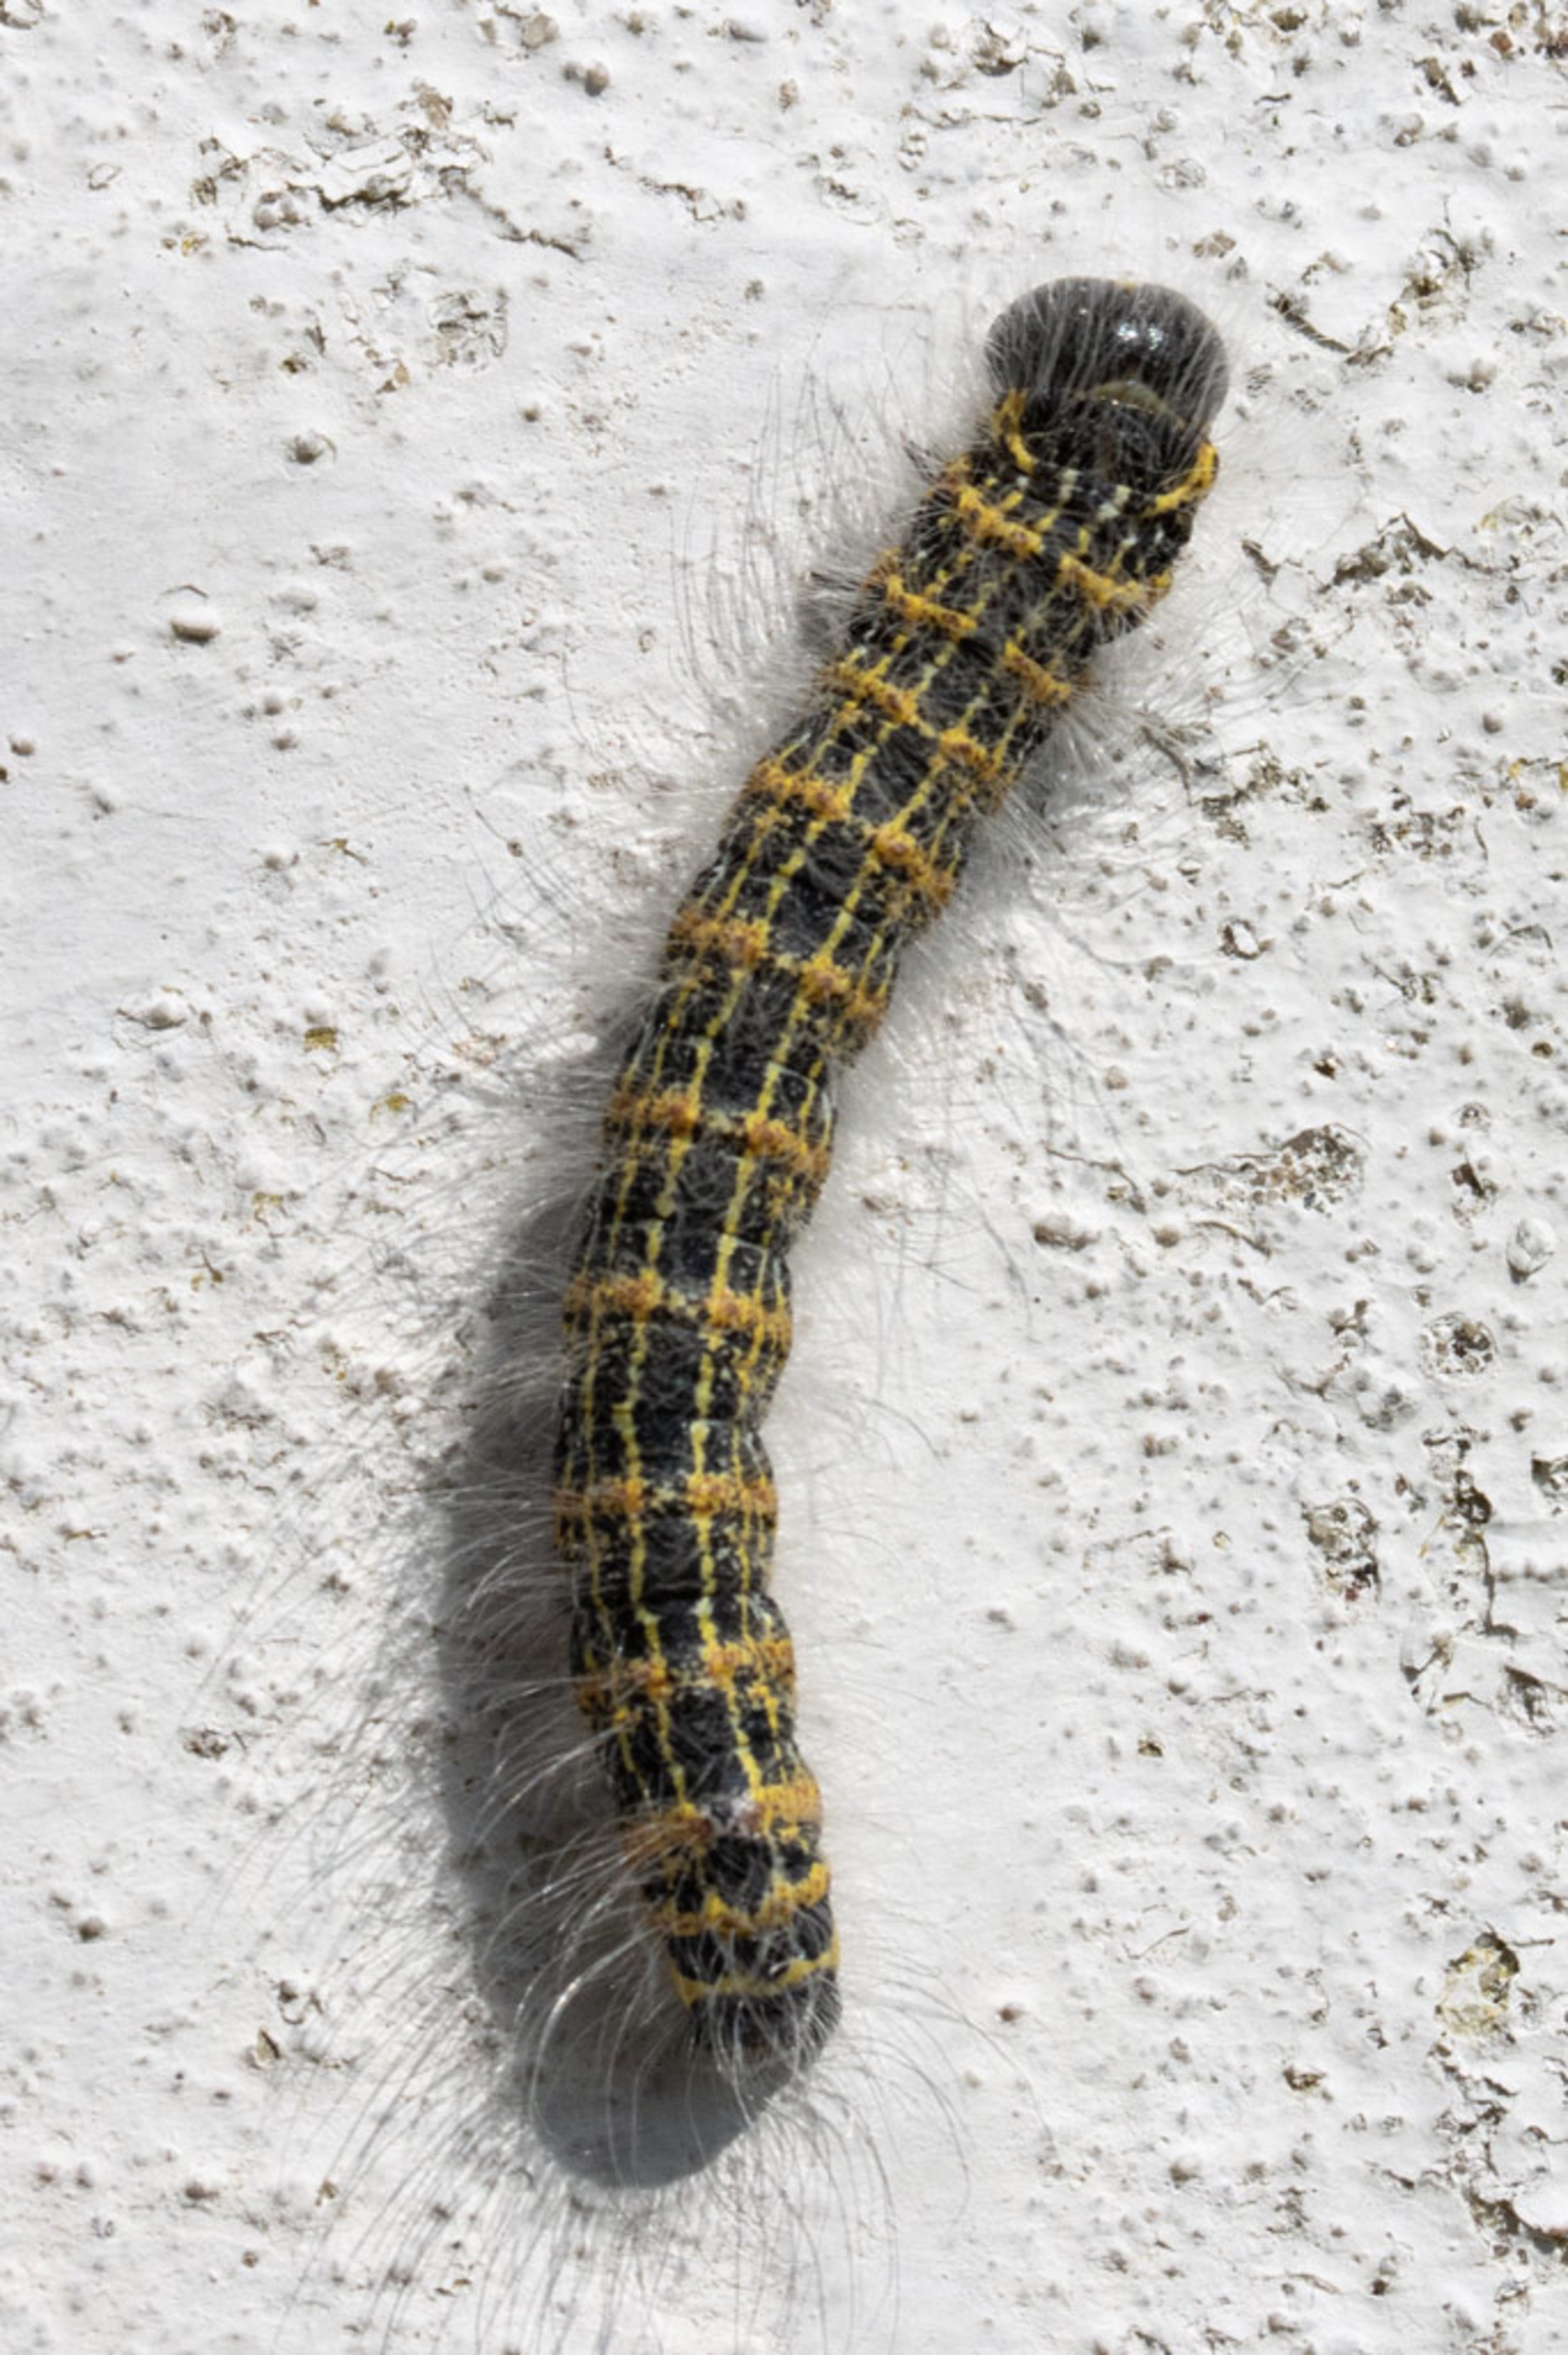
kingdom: Animalia
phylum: Arthropoda
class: Insecta
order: Lepidoptera
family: Notodontidae
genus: Phalera
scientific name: Phalera bucephala
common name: Måneplet
